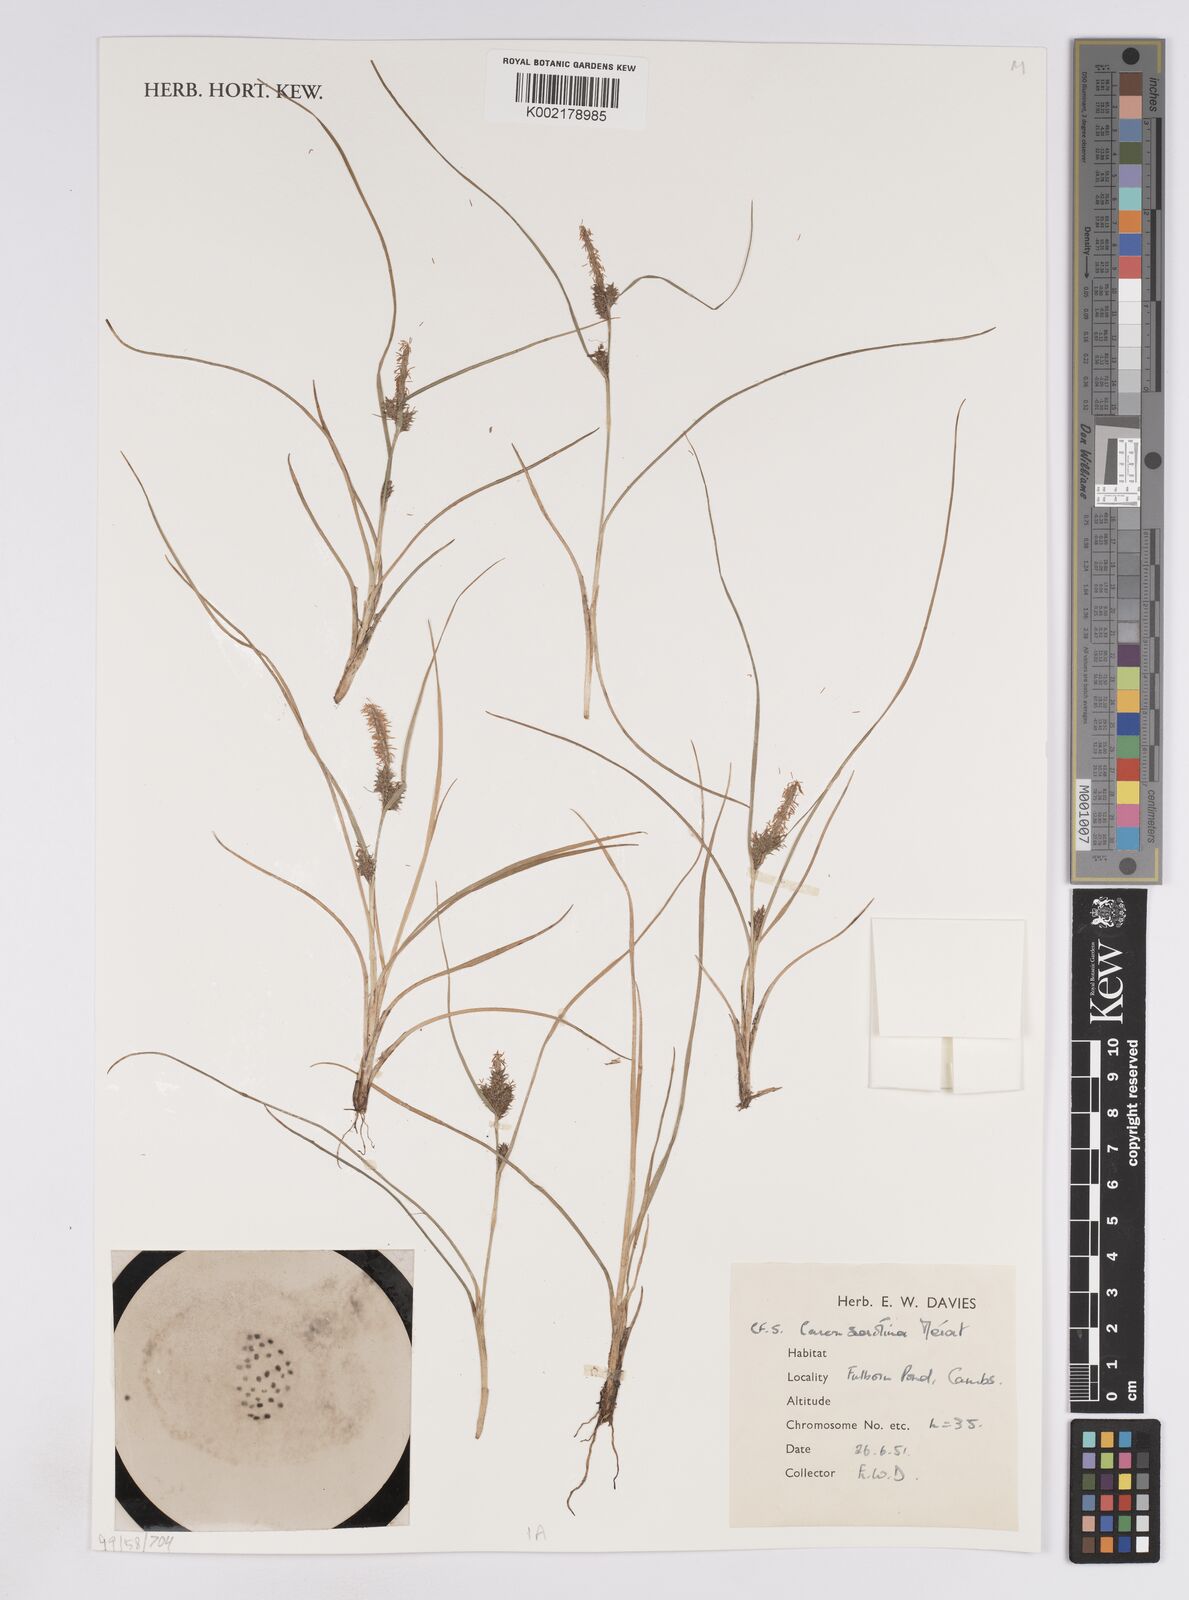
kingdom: Plantae
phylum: Tracheophyta
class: Liliopsida
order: Poales
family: Cyperaceae
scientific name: Cyperaceae
